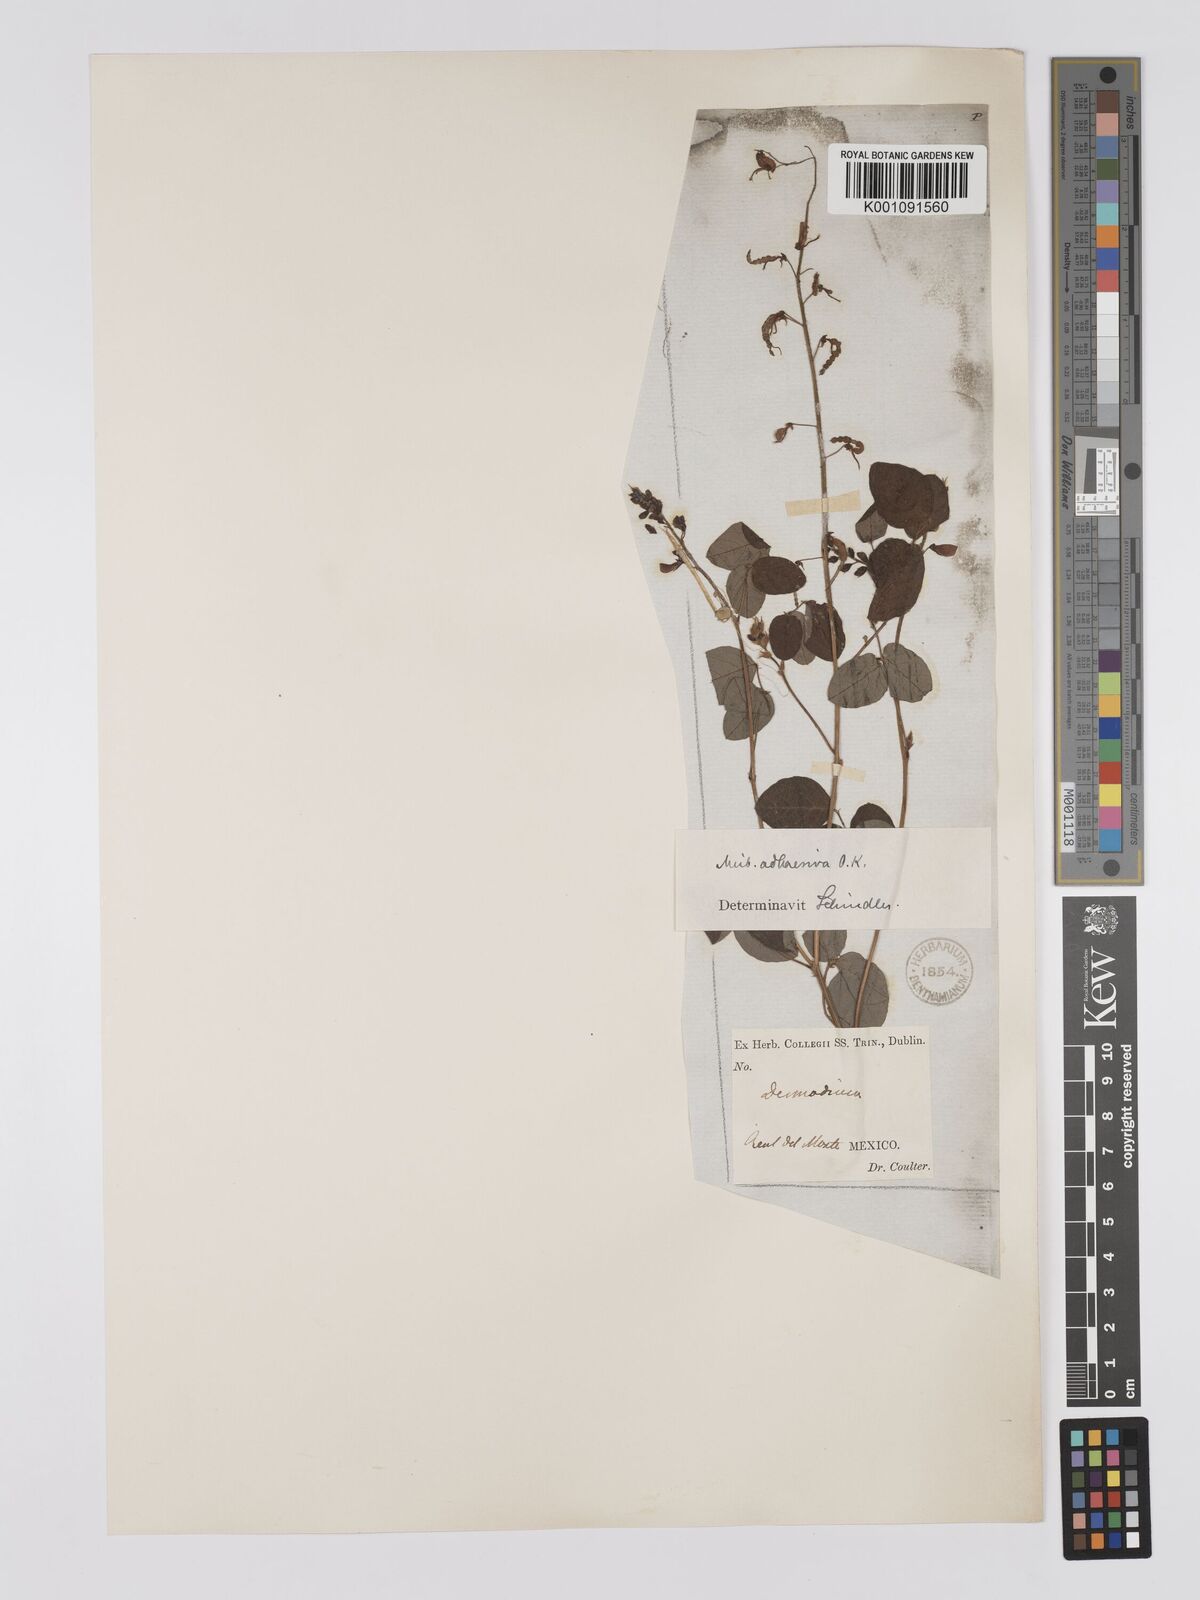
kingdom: Plantae
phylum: Tracheophyta
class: Magnoliopsida
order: Fabales
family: Fabaceae
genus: Desmodium
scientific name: Desmodium procumbens
